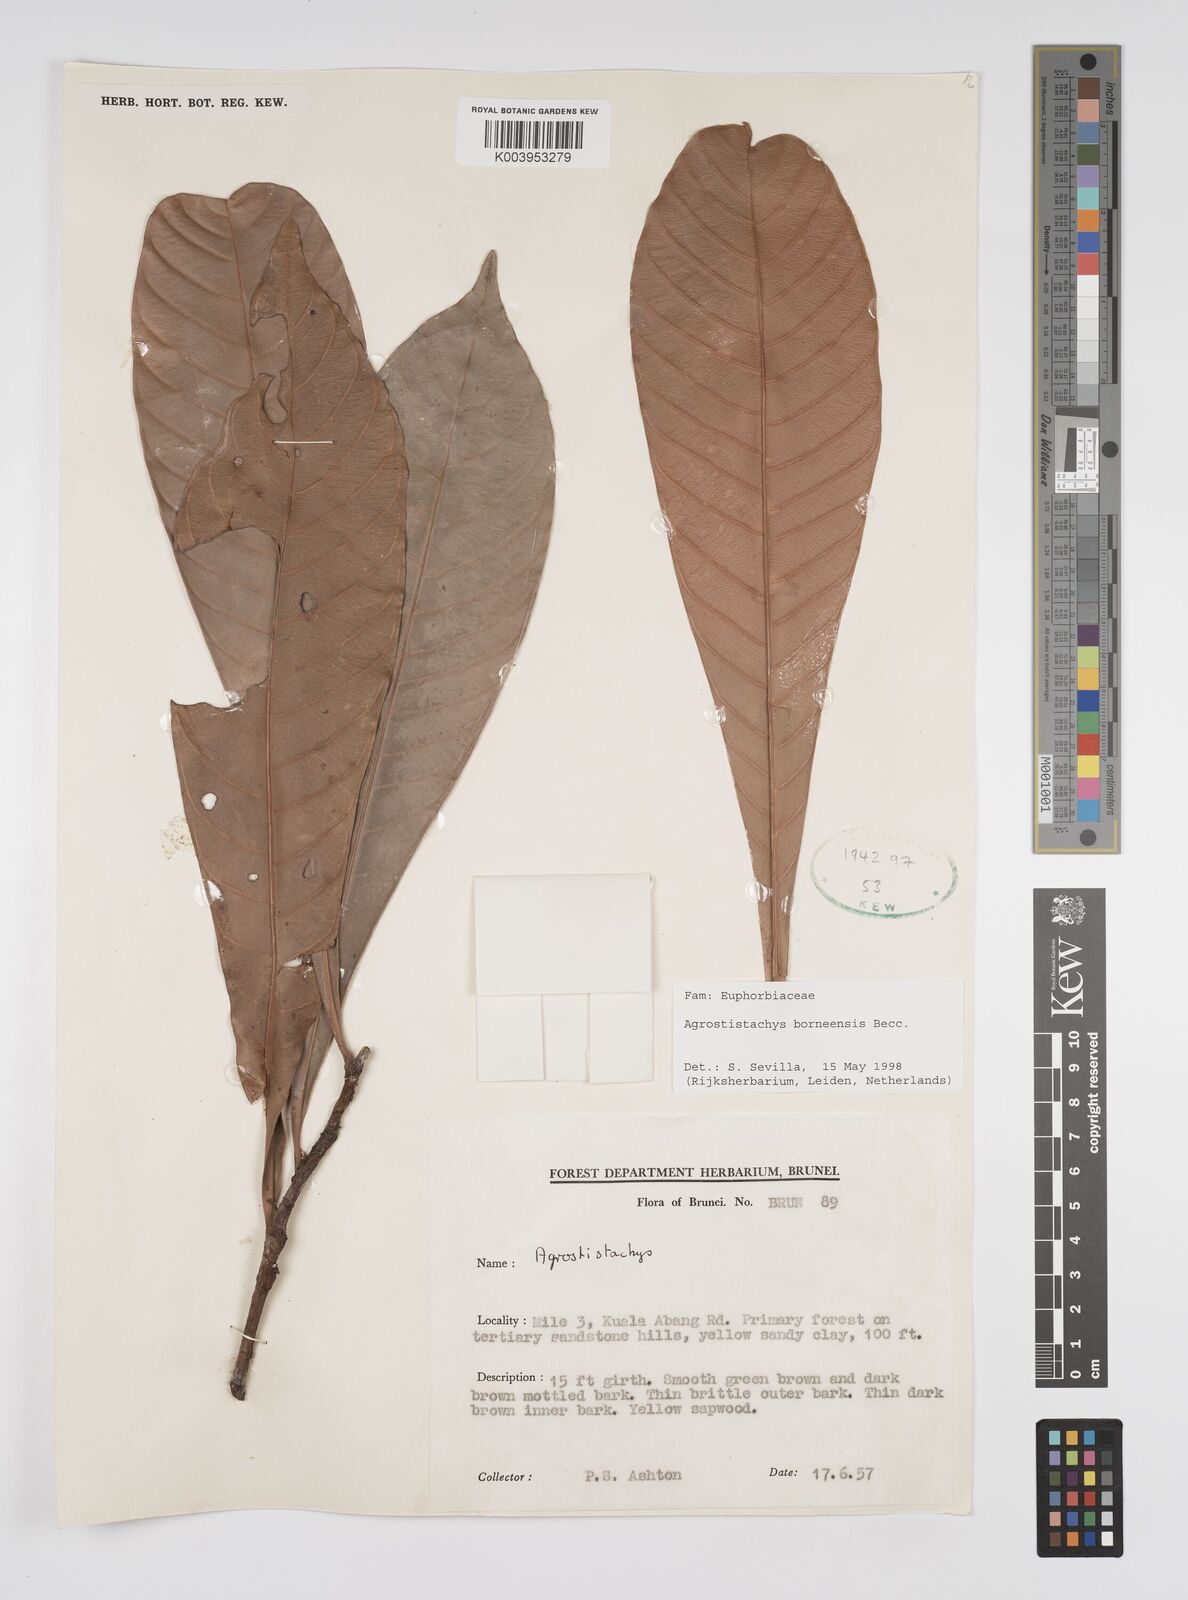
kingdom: Plantae
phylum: Tracheophyta
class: Magnoliopsida
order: Malpighiales
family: Euphorbiaceae
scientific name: Euphorbiaceae
